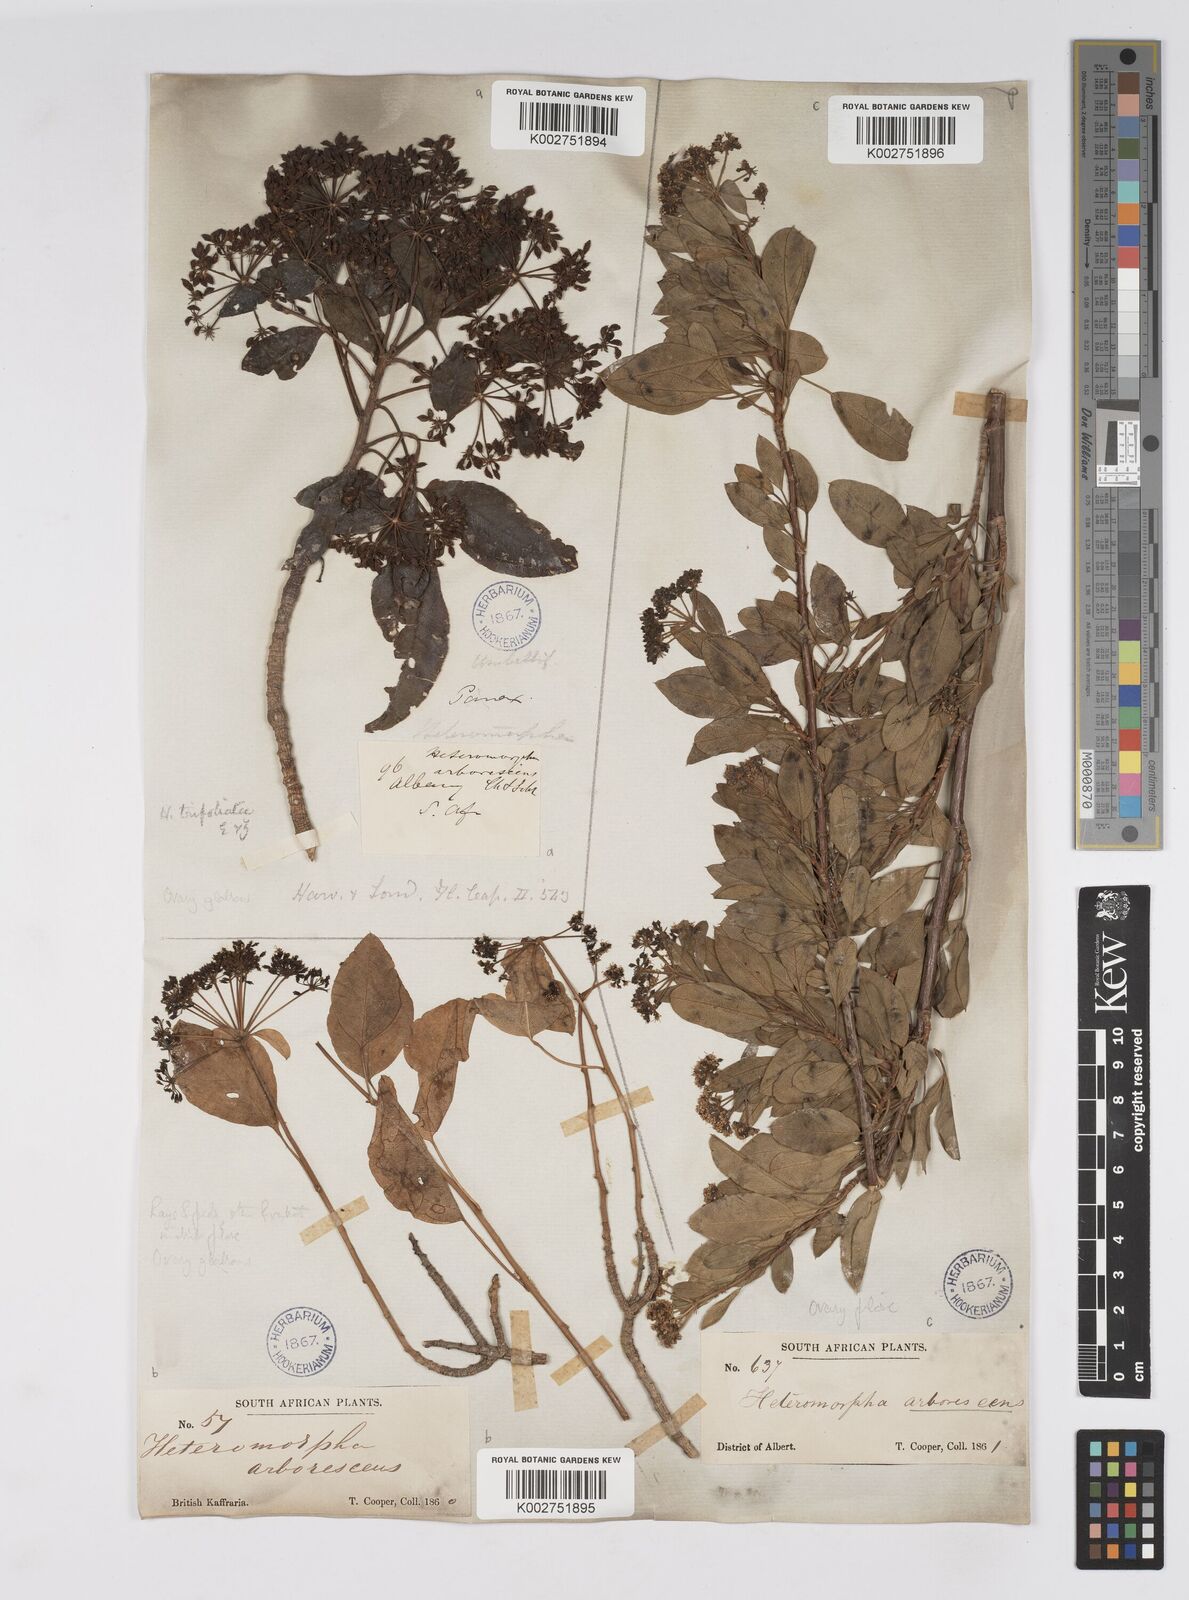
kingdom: Plantae
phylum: Tracheophyta
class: Magnoliopsida
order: Apiales
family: Apiaceae
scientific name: Apiaceae
